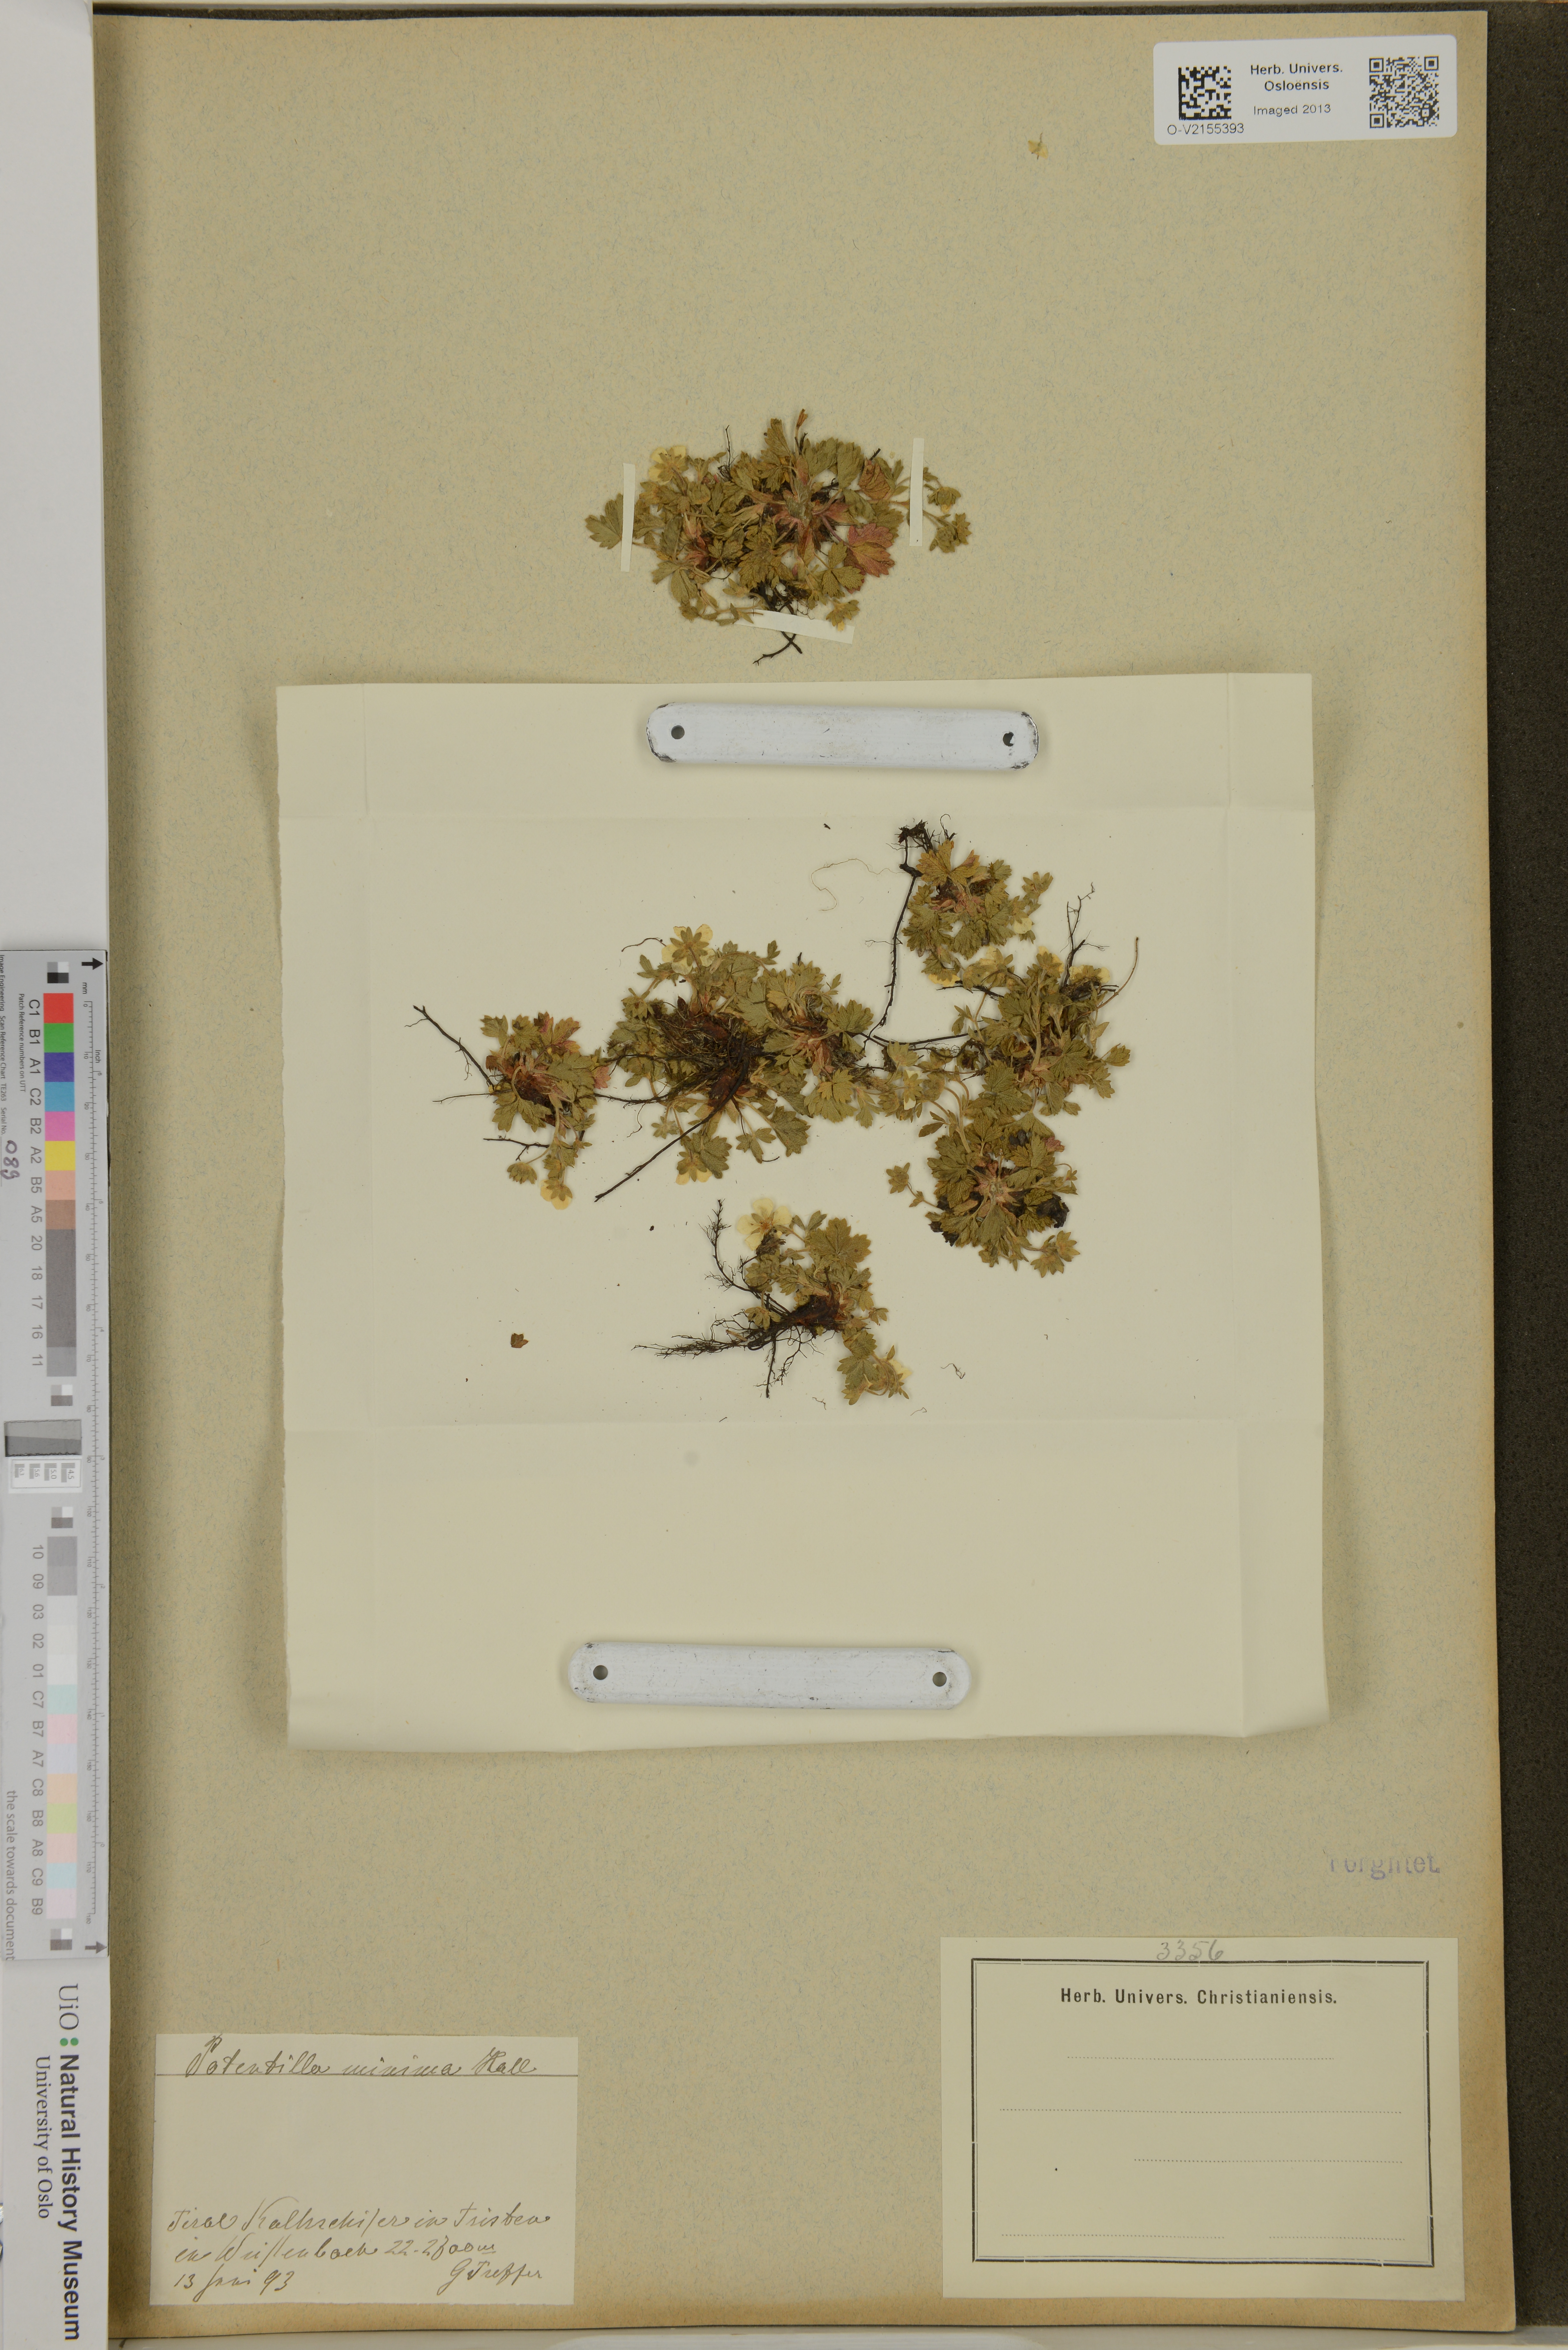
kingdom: Plantae
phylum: Tracheophyta
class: Magnoliopsida
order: Rosales
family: Rosaceae
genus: Potentilla
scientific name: Potentilla
